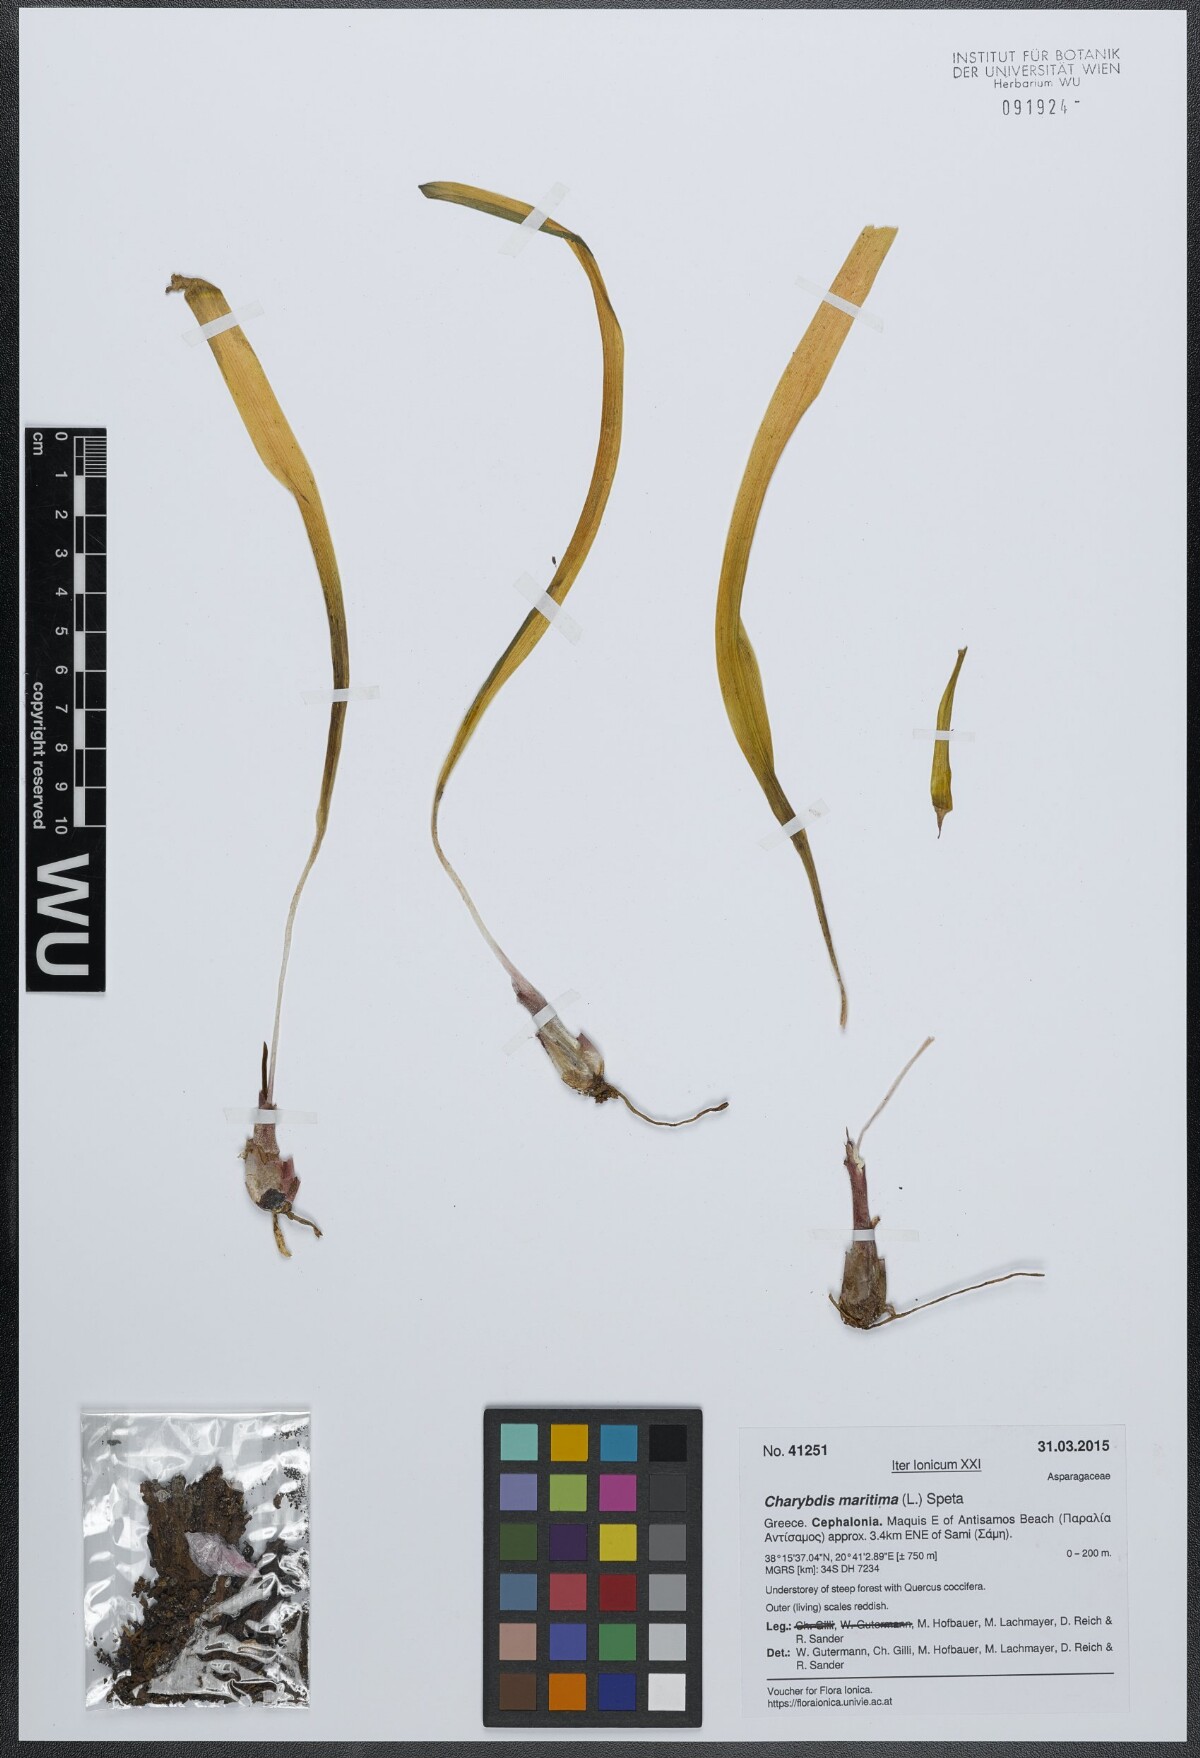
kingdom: Plantae
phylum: Tracheophyta
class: Liliopsida
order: Asparagales
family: Asparagaceae
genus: Drimia
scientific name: Drimia maritima
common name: Maritime squill
